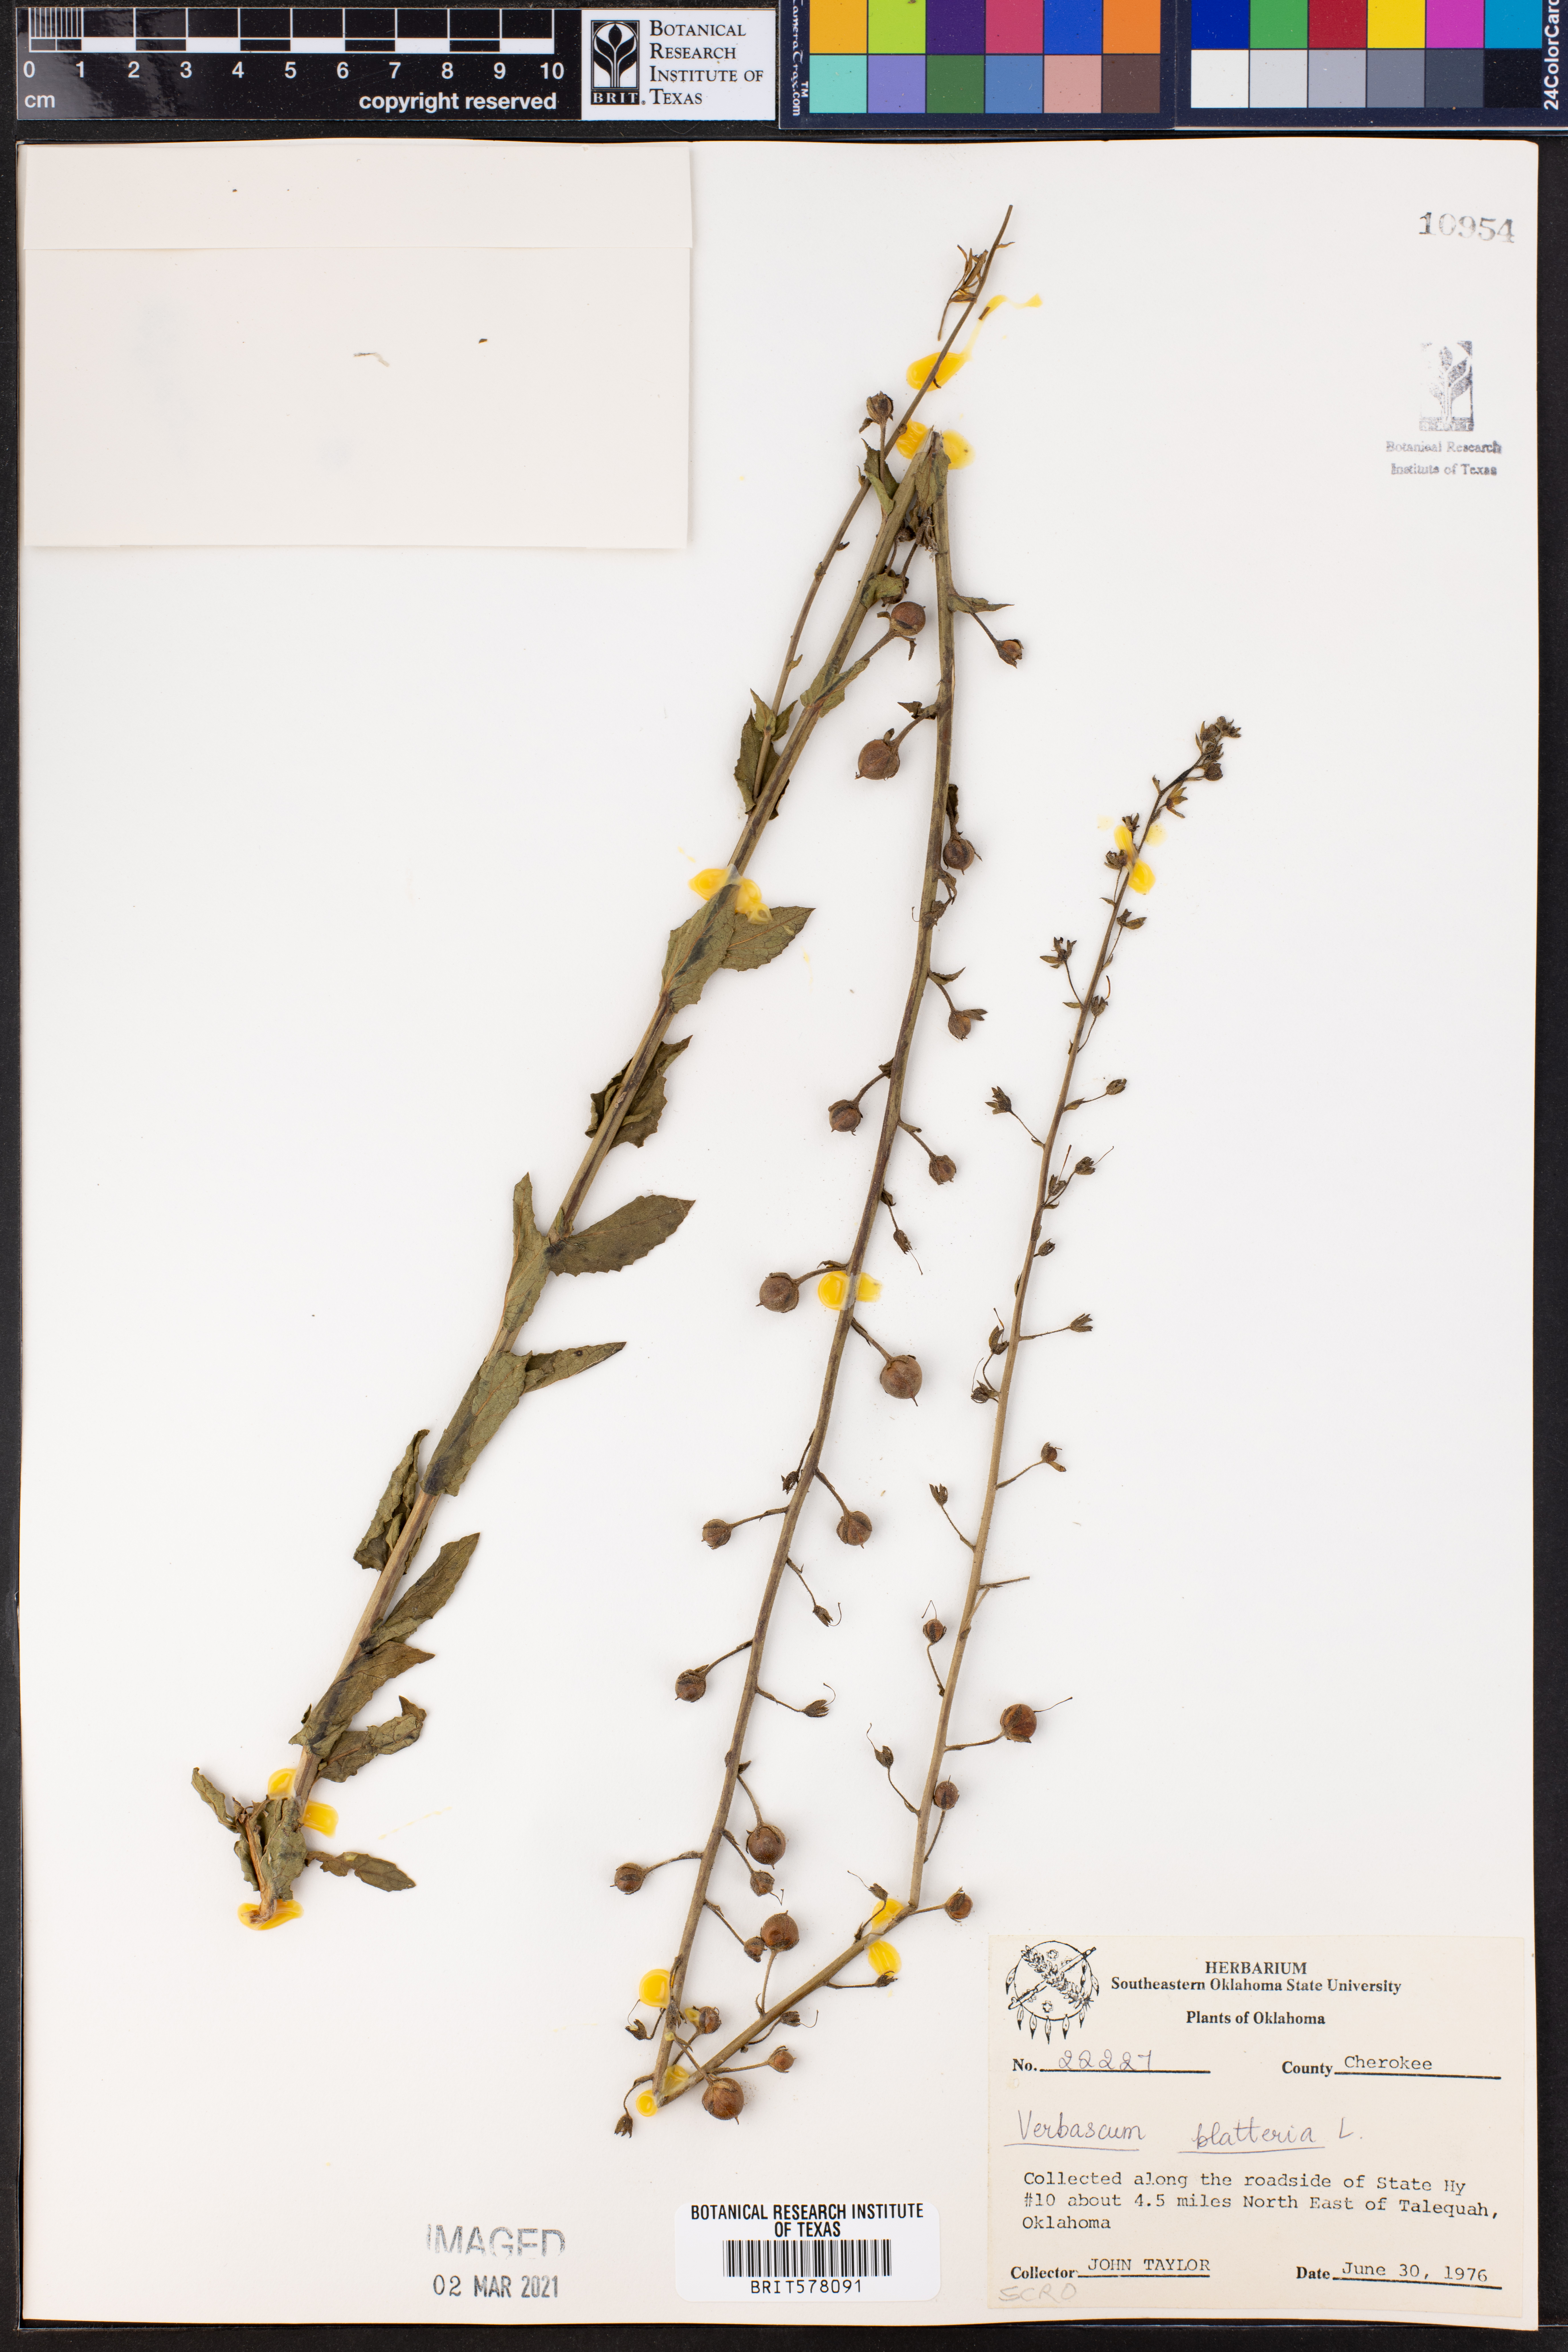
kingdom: Plantae
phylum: Tracheophyta
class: Magnoliopsida
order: Lamiales
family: Scrophulariaceae
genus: Verbascum
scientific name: Verbascum blattaria
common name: Moth mullein
